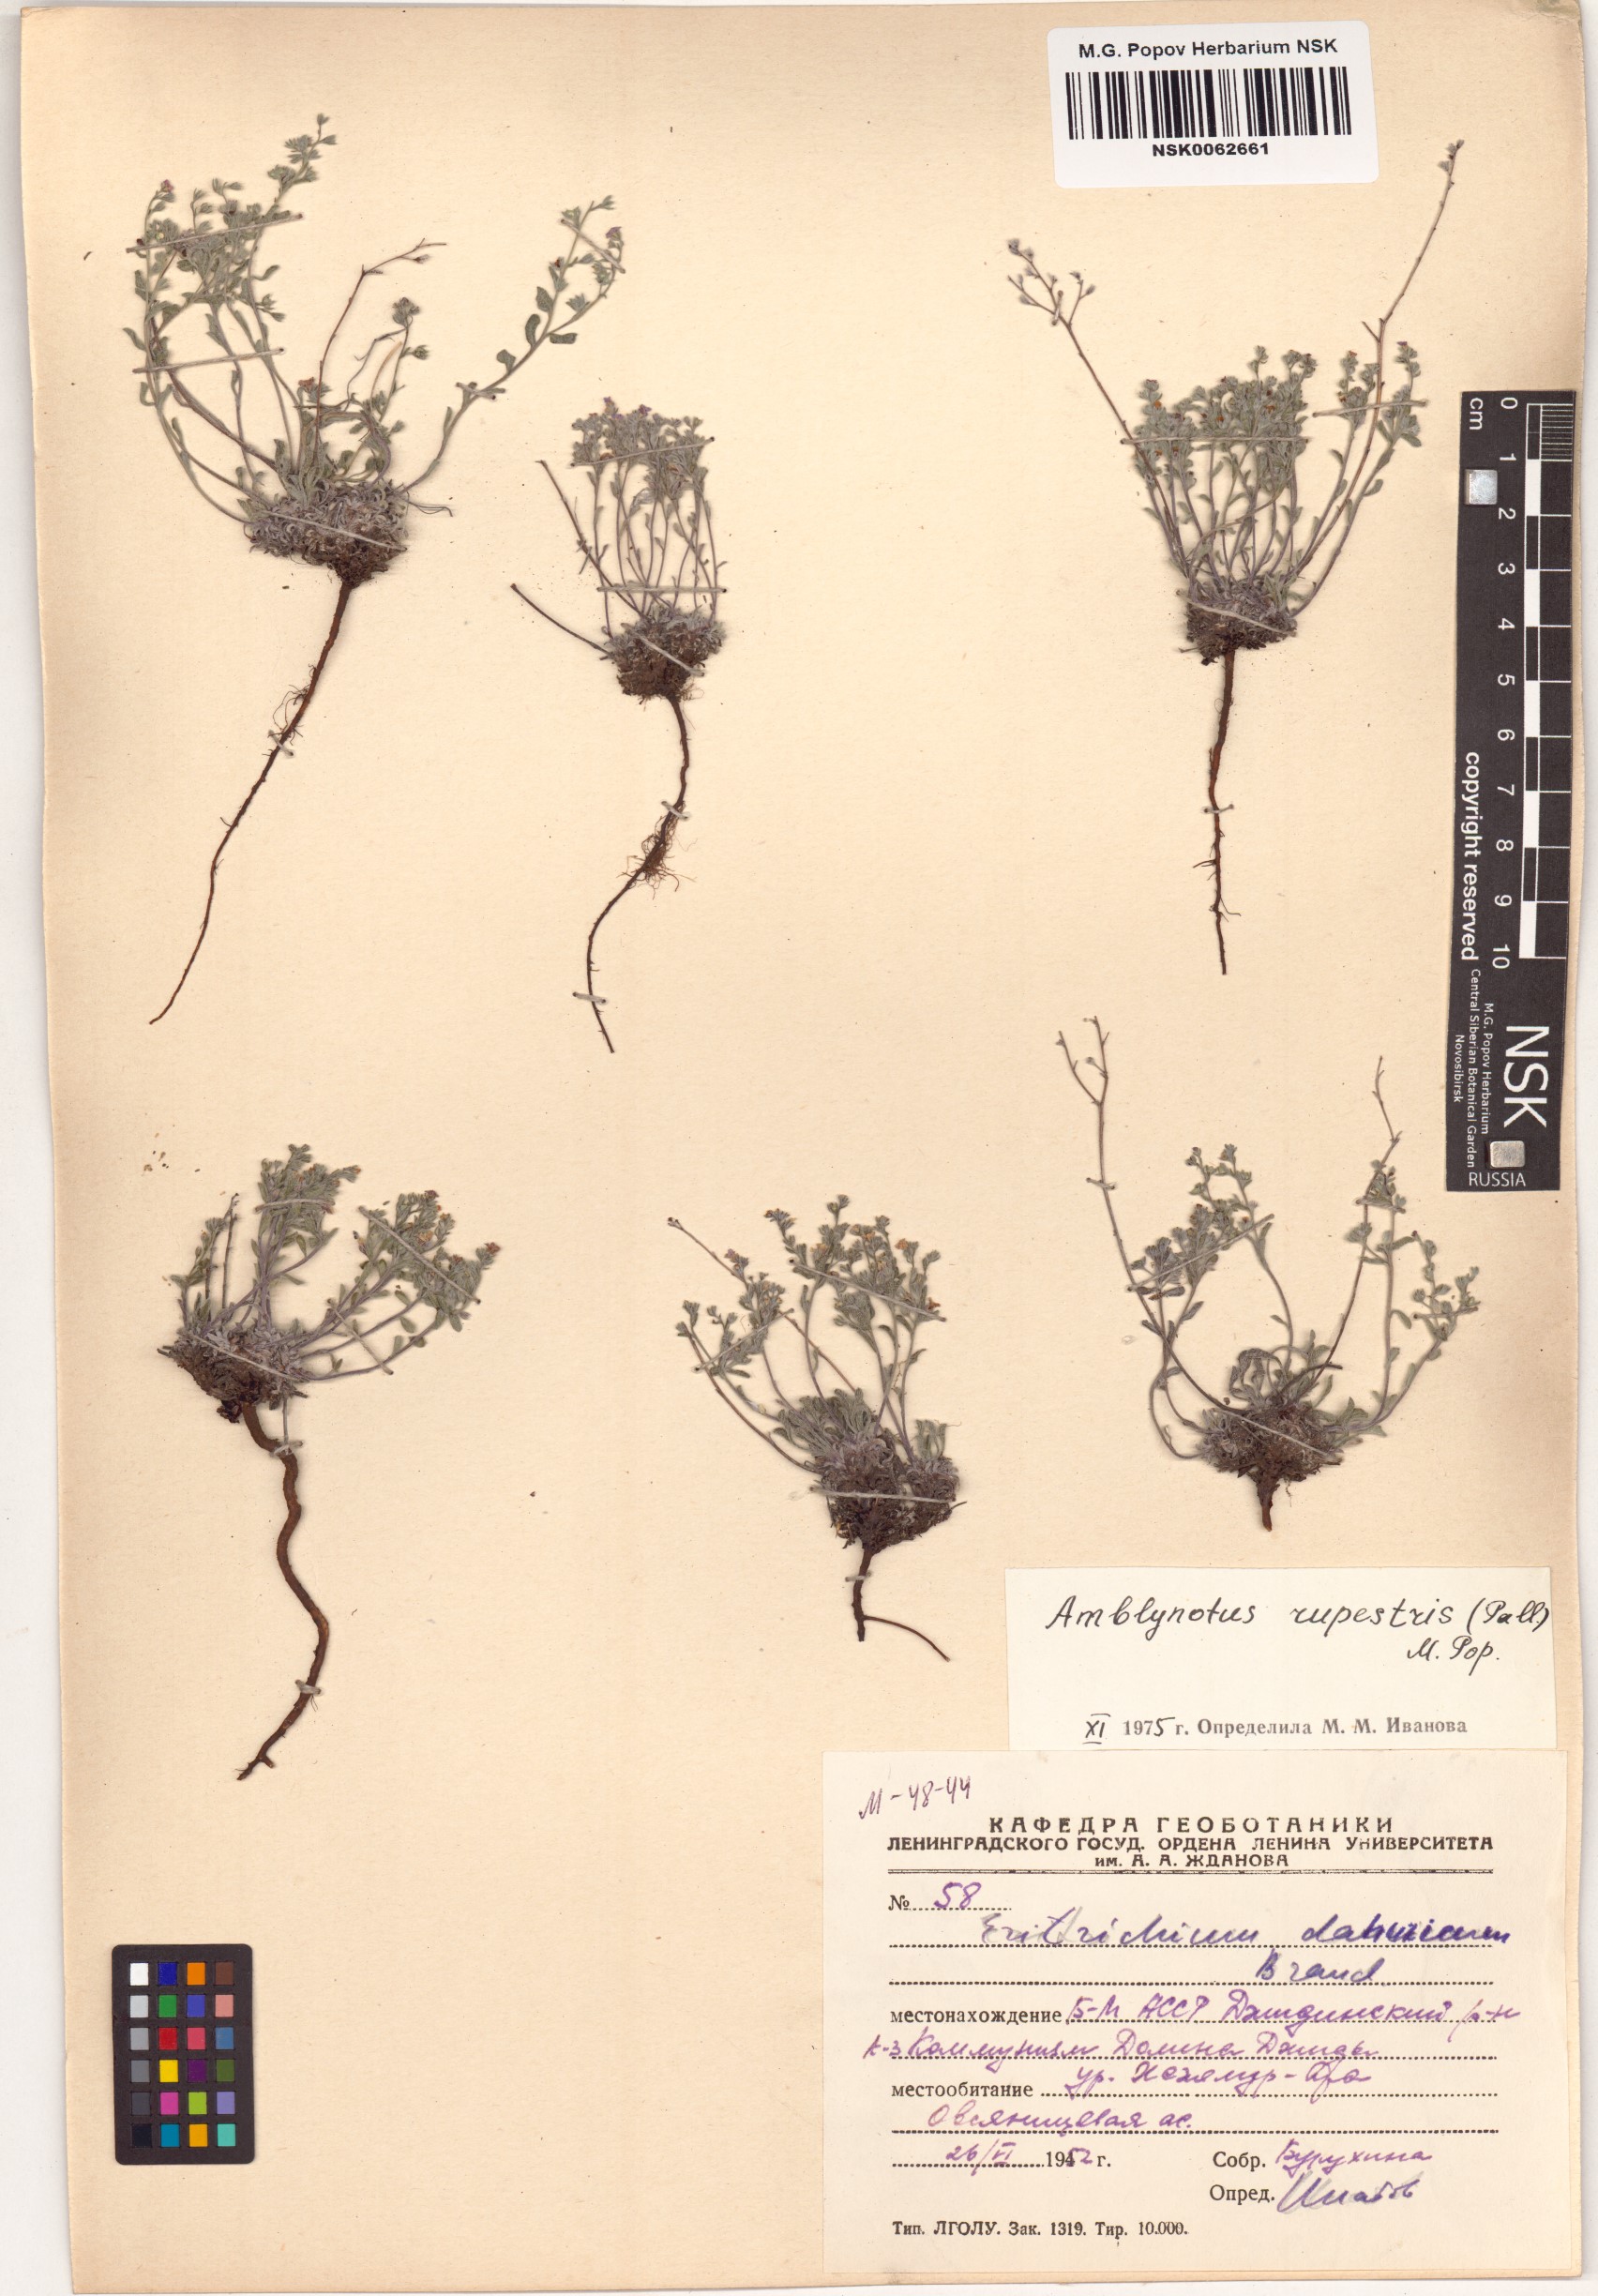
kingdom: Plantae
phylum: Tracheophyta
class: Magnoliopsida
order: Boraginales
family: Boraginaceae
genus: Eritrichium
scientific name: Eritrichium rupestre
